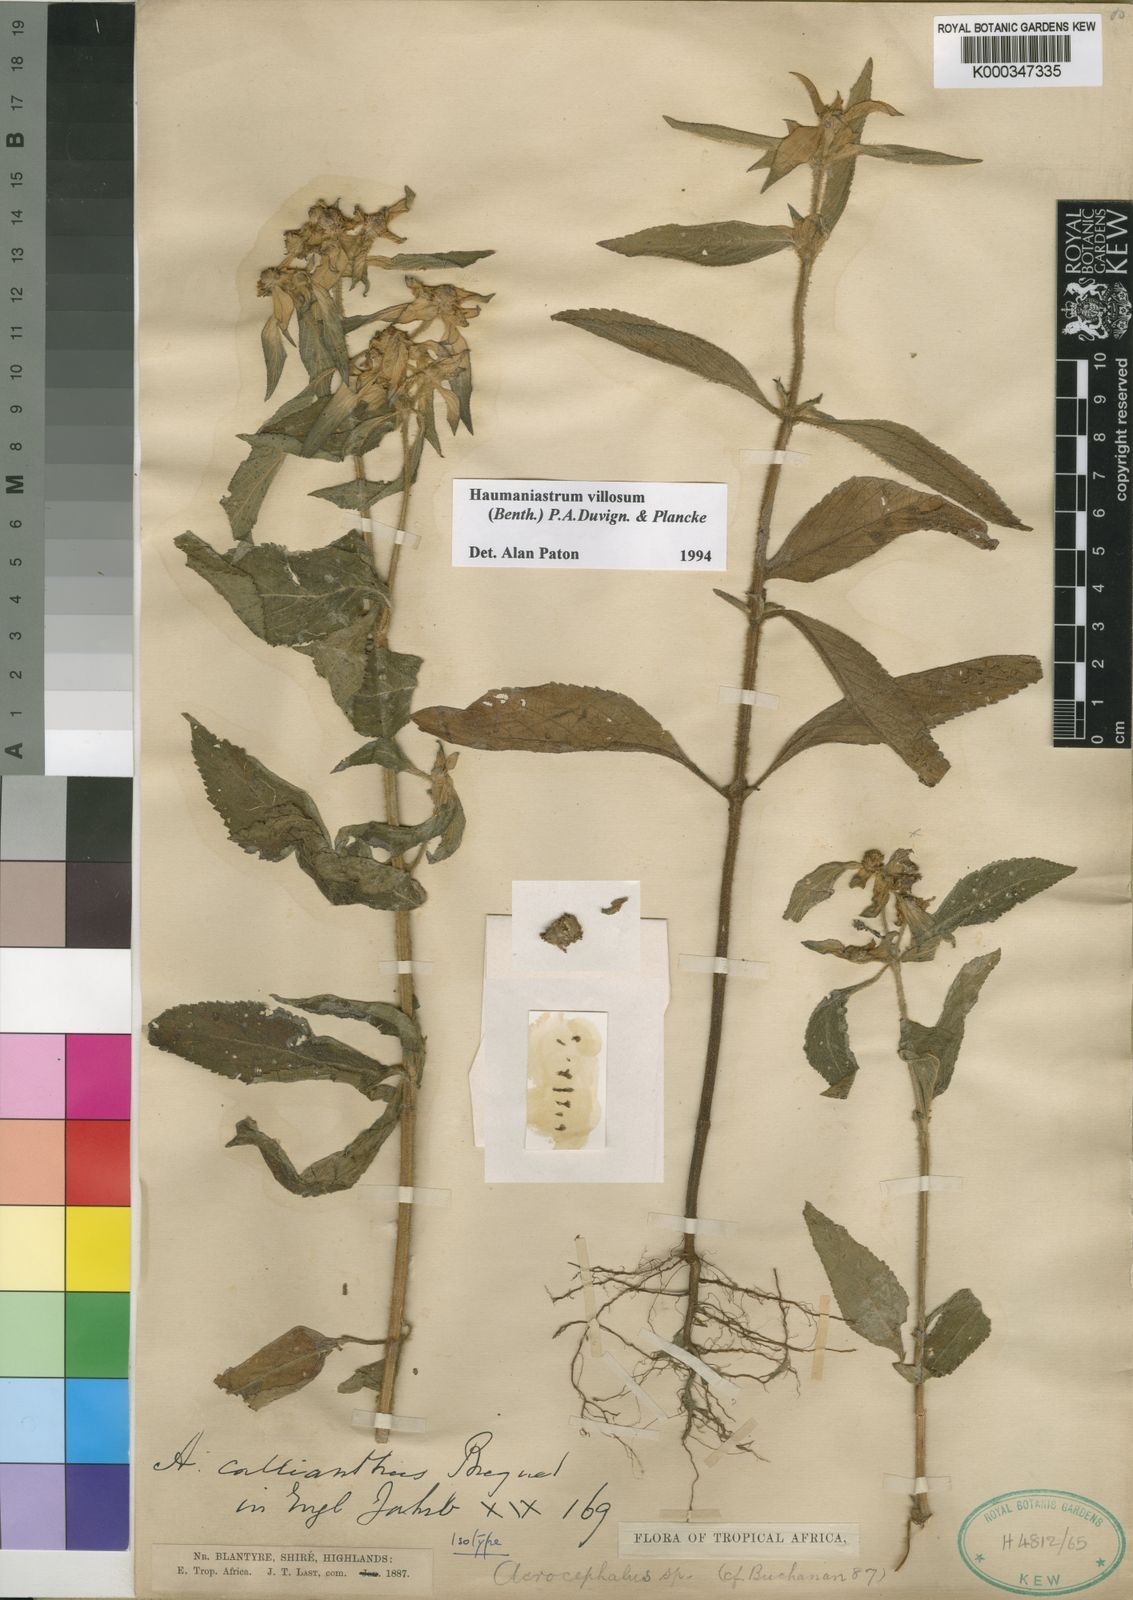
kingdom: Plantae
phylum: Tracheophyta
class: Magnoliopsida
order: Lamiales
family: Lamiaceae
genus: Haumaniastrum
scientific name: Haumaniastrum villosum
